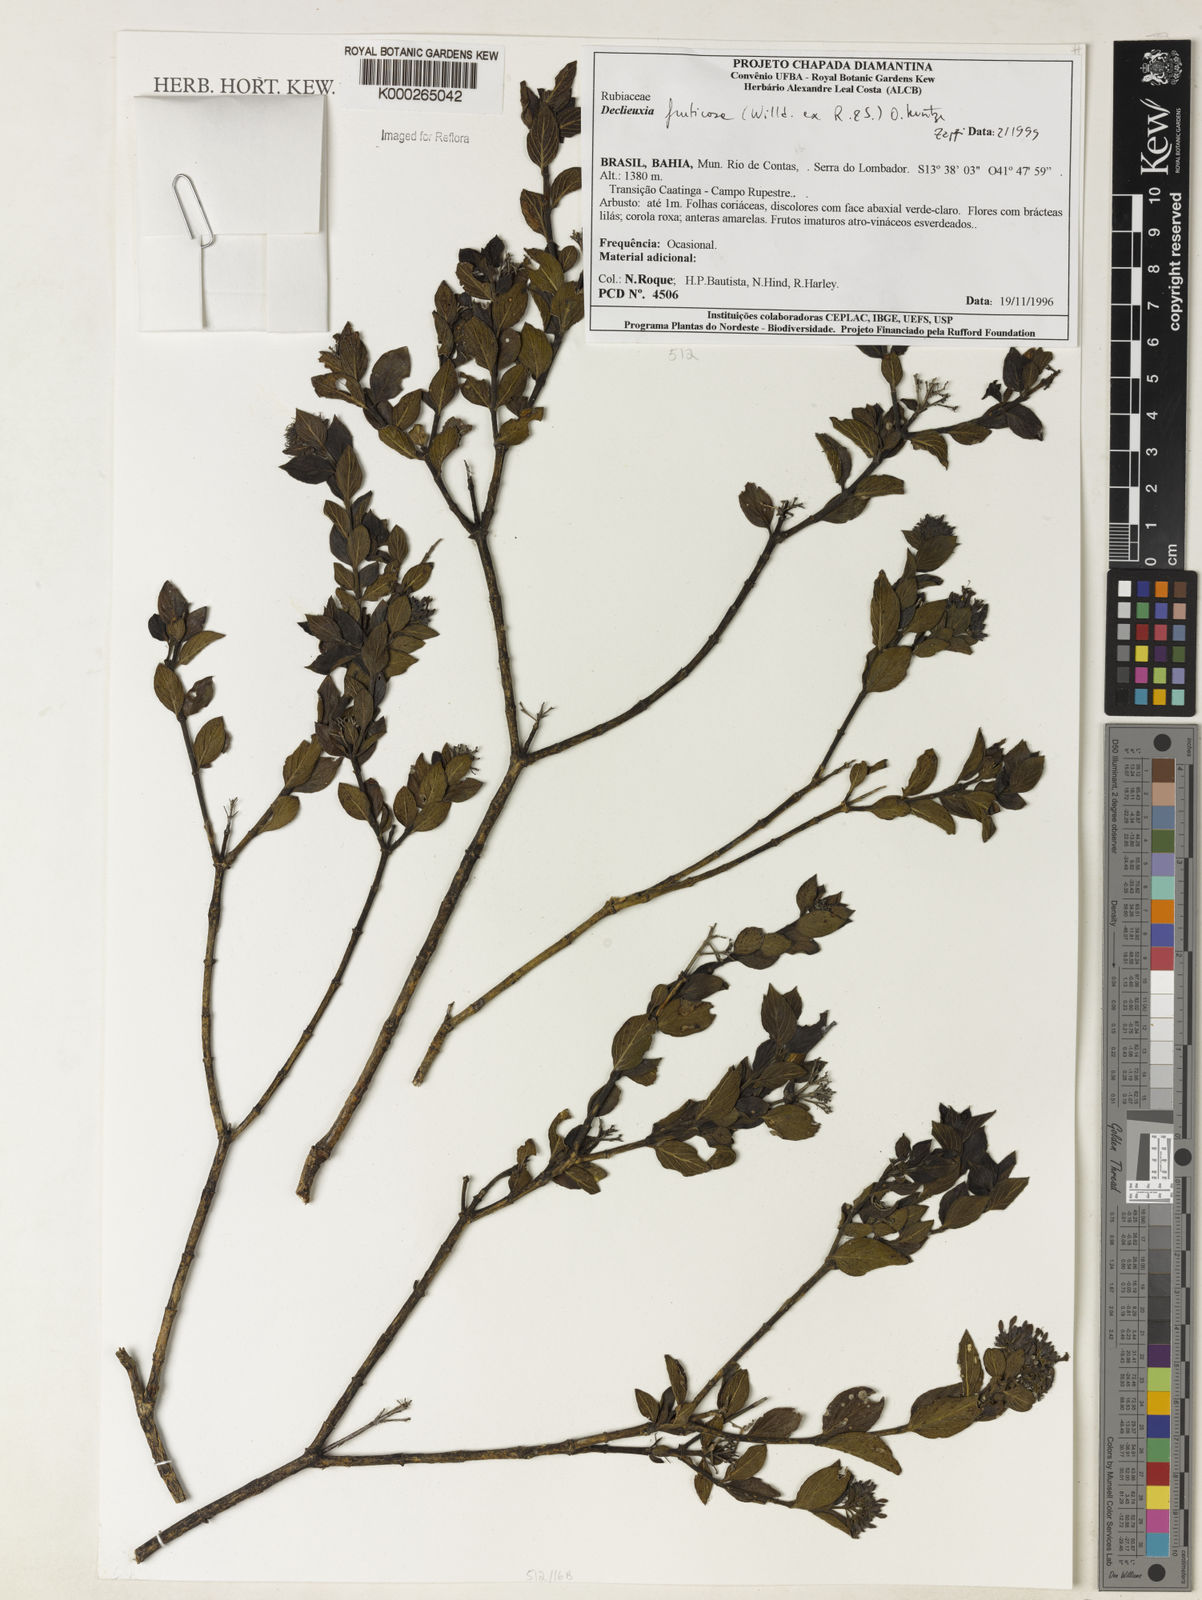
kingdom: Plantae
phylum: Tracheophyta
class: Magnoliopsida
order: Gentianales
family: Rubiaceae
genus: Declieuxia
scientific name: Declieuxia fruticosa
